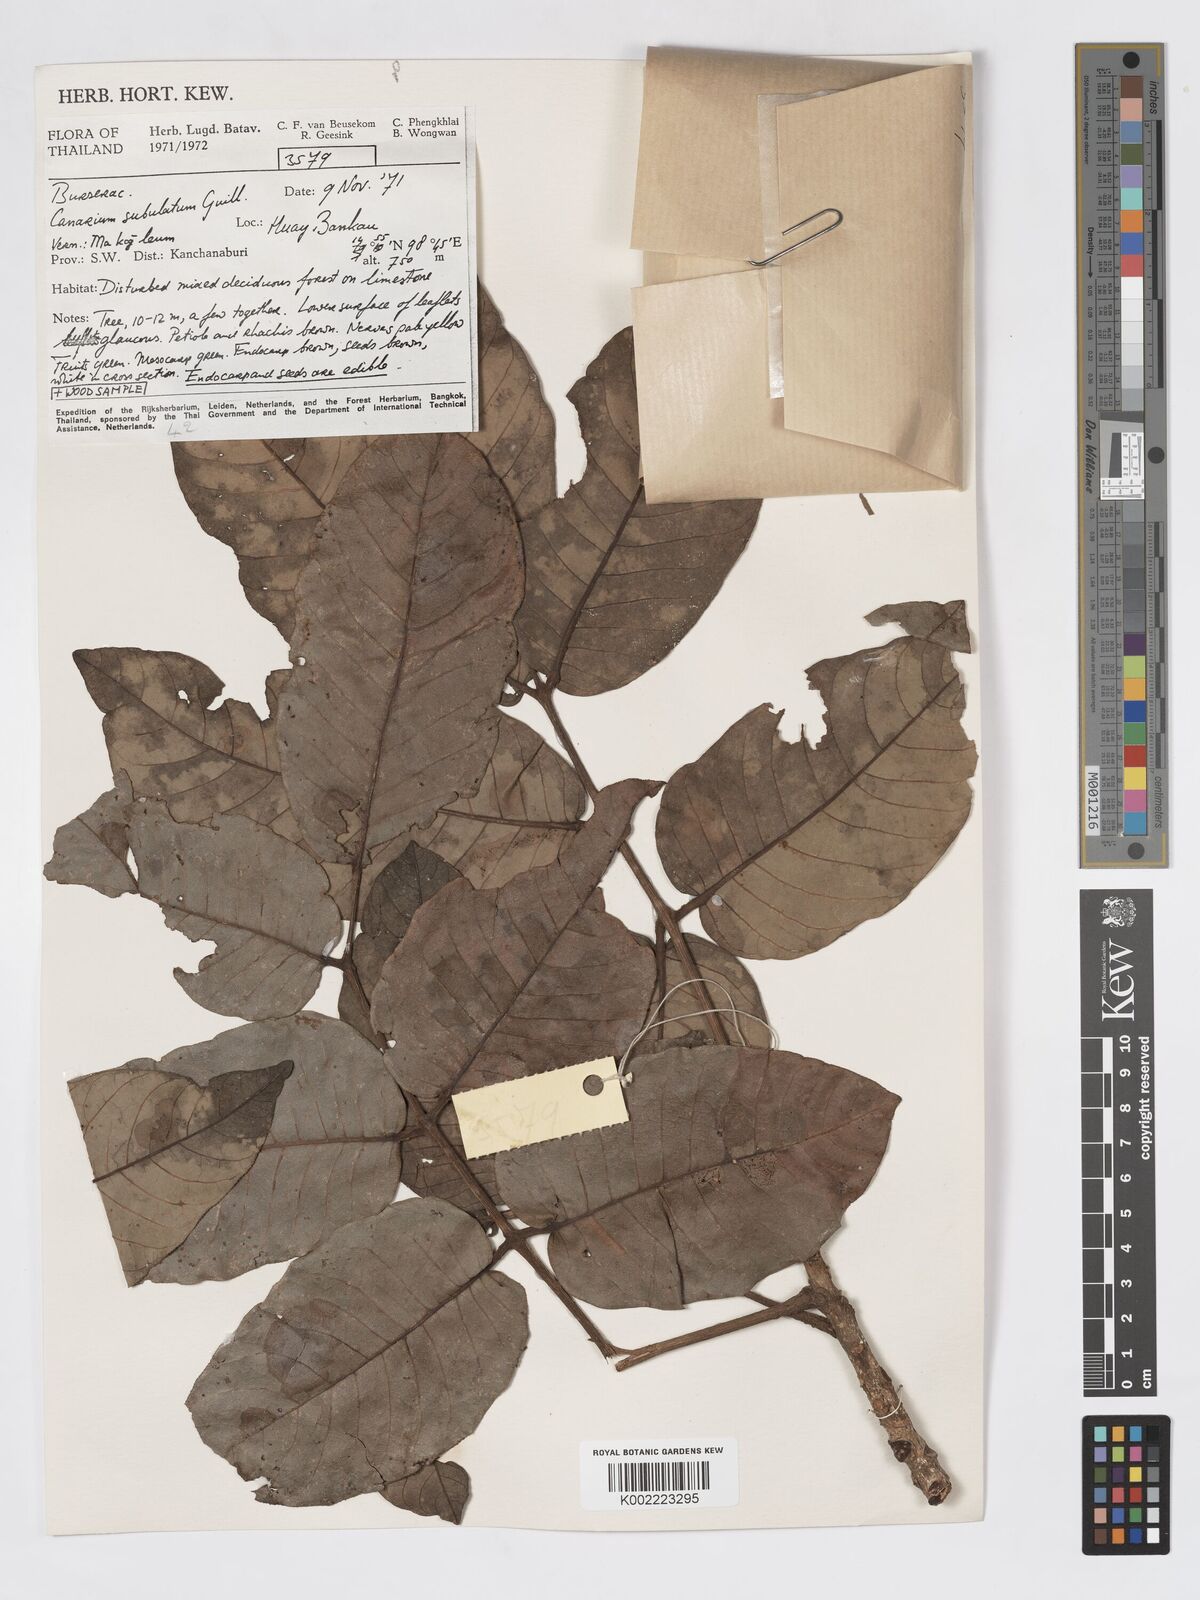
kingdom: Plantae
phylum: Tracheophyta
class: Magnoliopsida
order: Sapindales
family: Burseraceae
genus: Canarium
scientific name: Canarium subulatum
